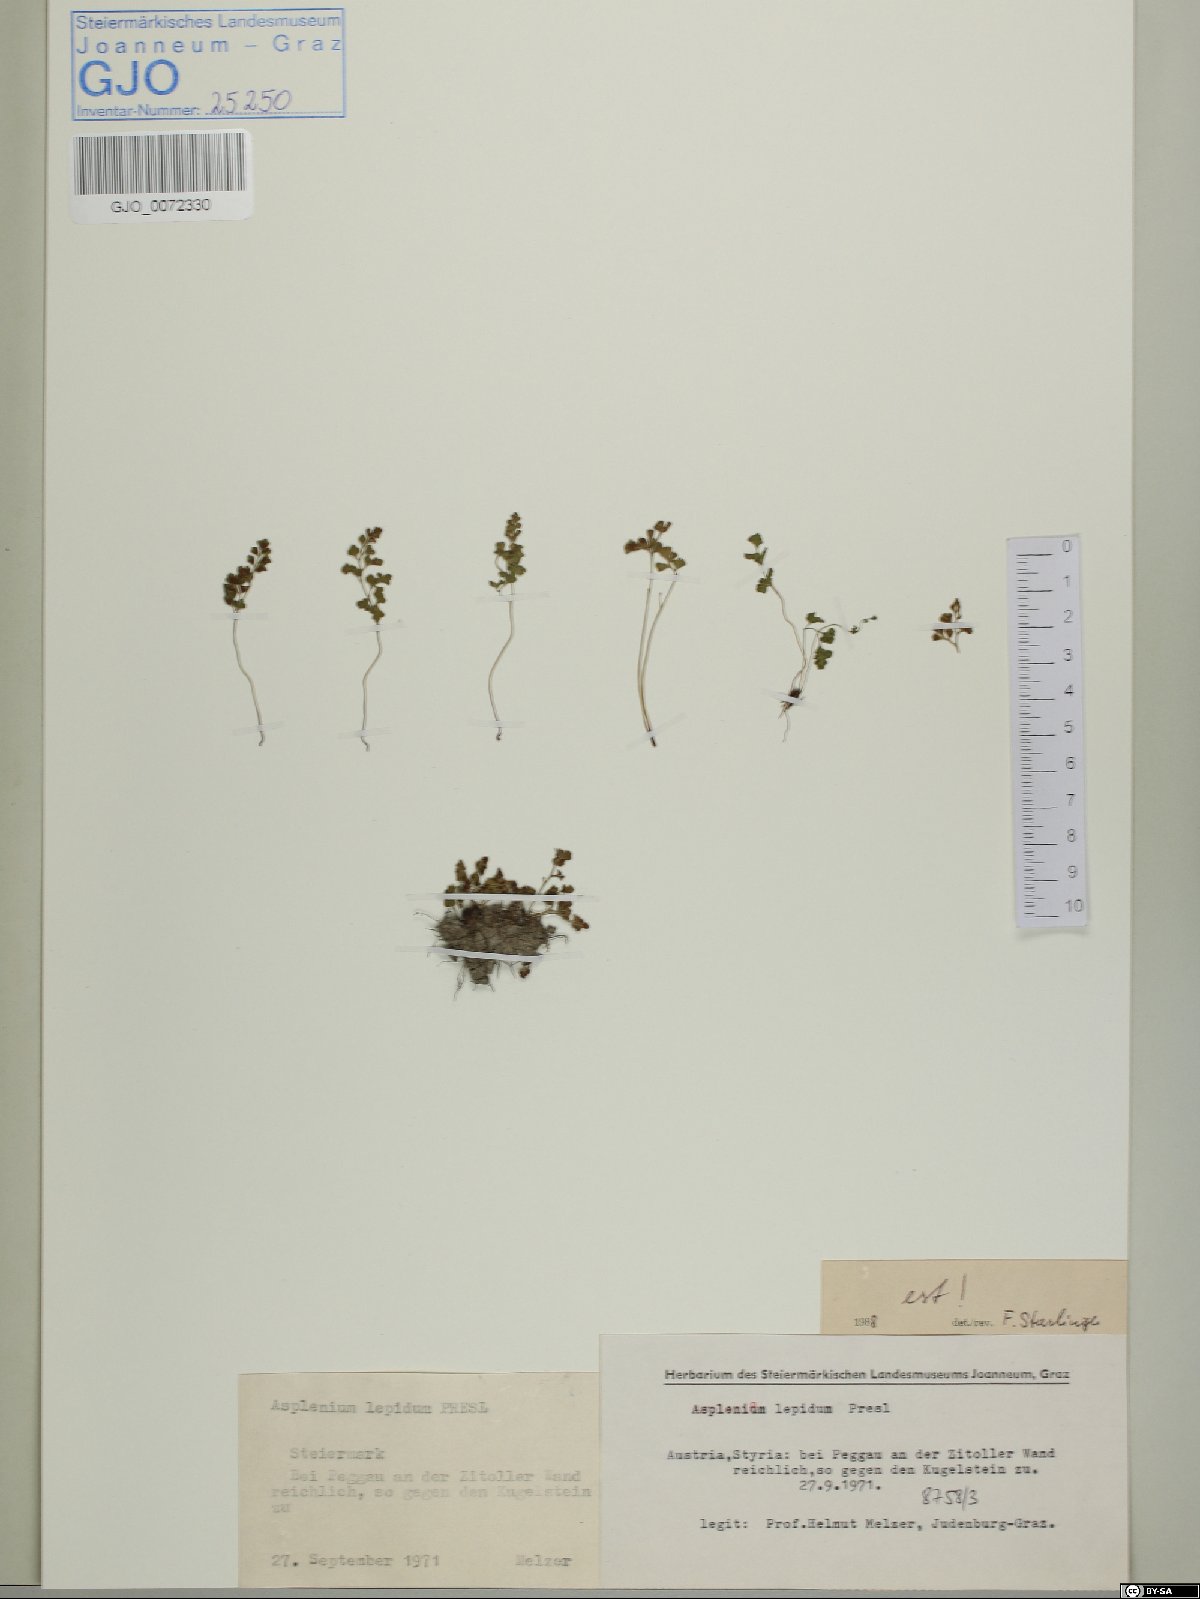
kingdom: Plantae
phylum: Tracheophyta
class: Polypodiopsida
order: Polypodiales
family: Aspleniaceae
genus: Asplenium
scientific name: Asplenium lepidum
